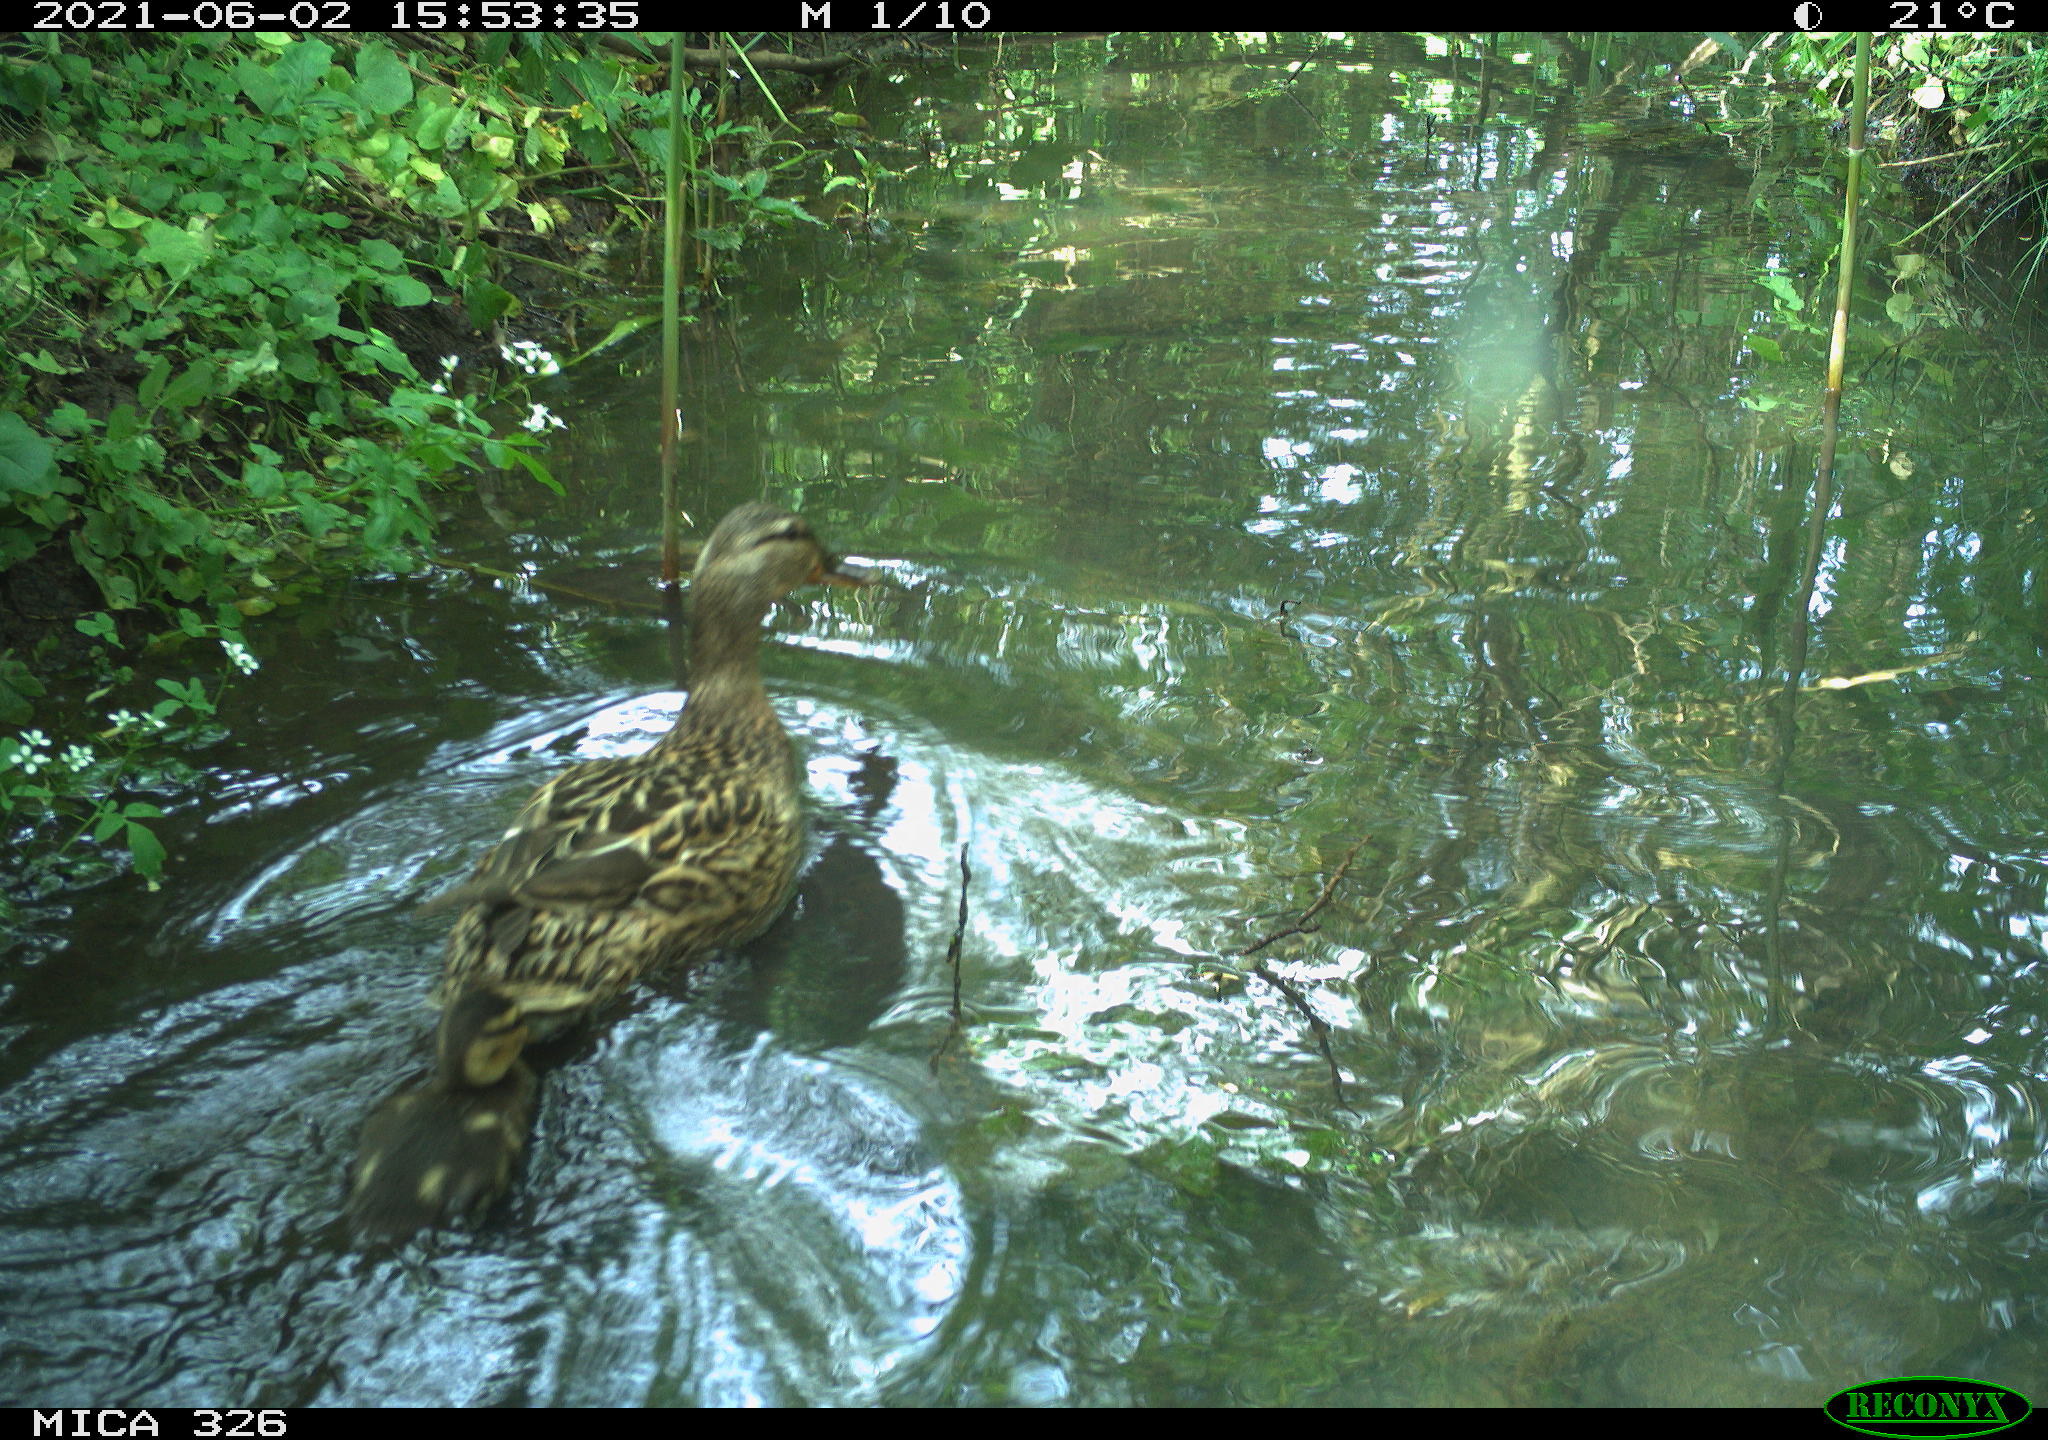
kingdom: Animalia
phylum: Chordata
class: Aves
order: Anseriformes
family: Anatidae
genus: Anas
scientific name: Anas platyrhynchos
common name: Mallard
